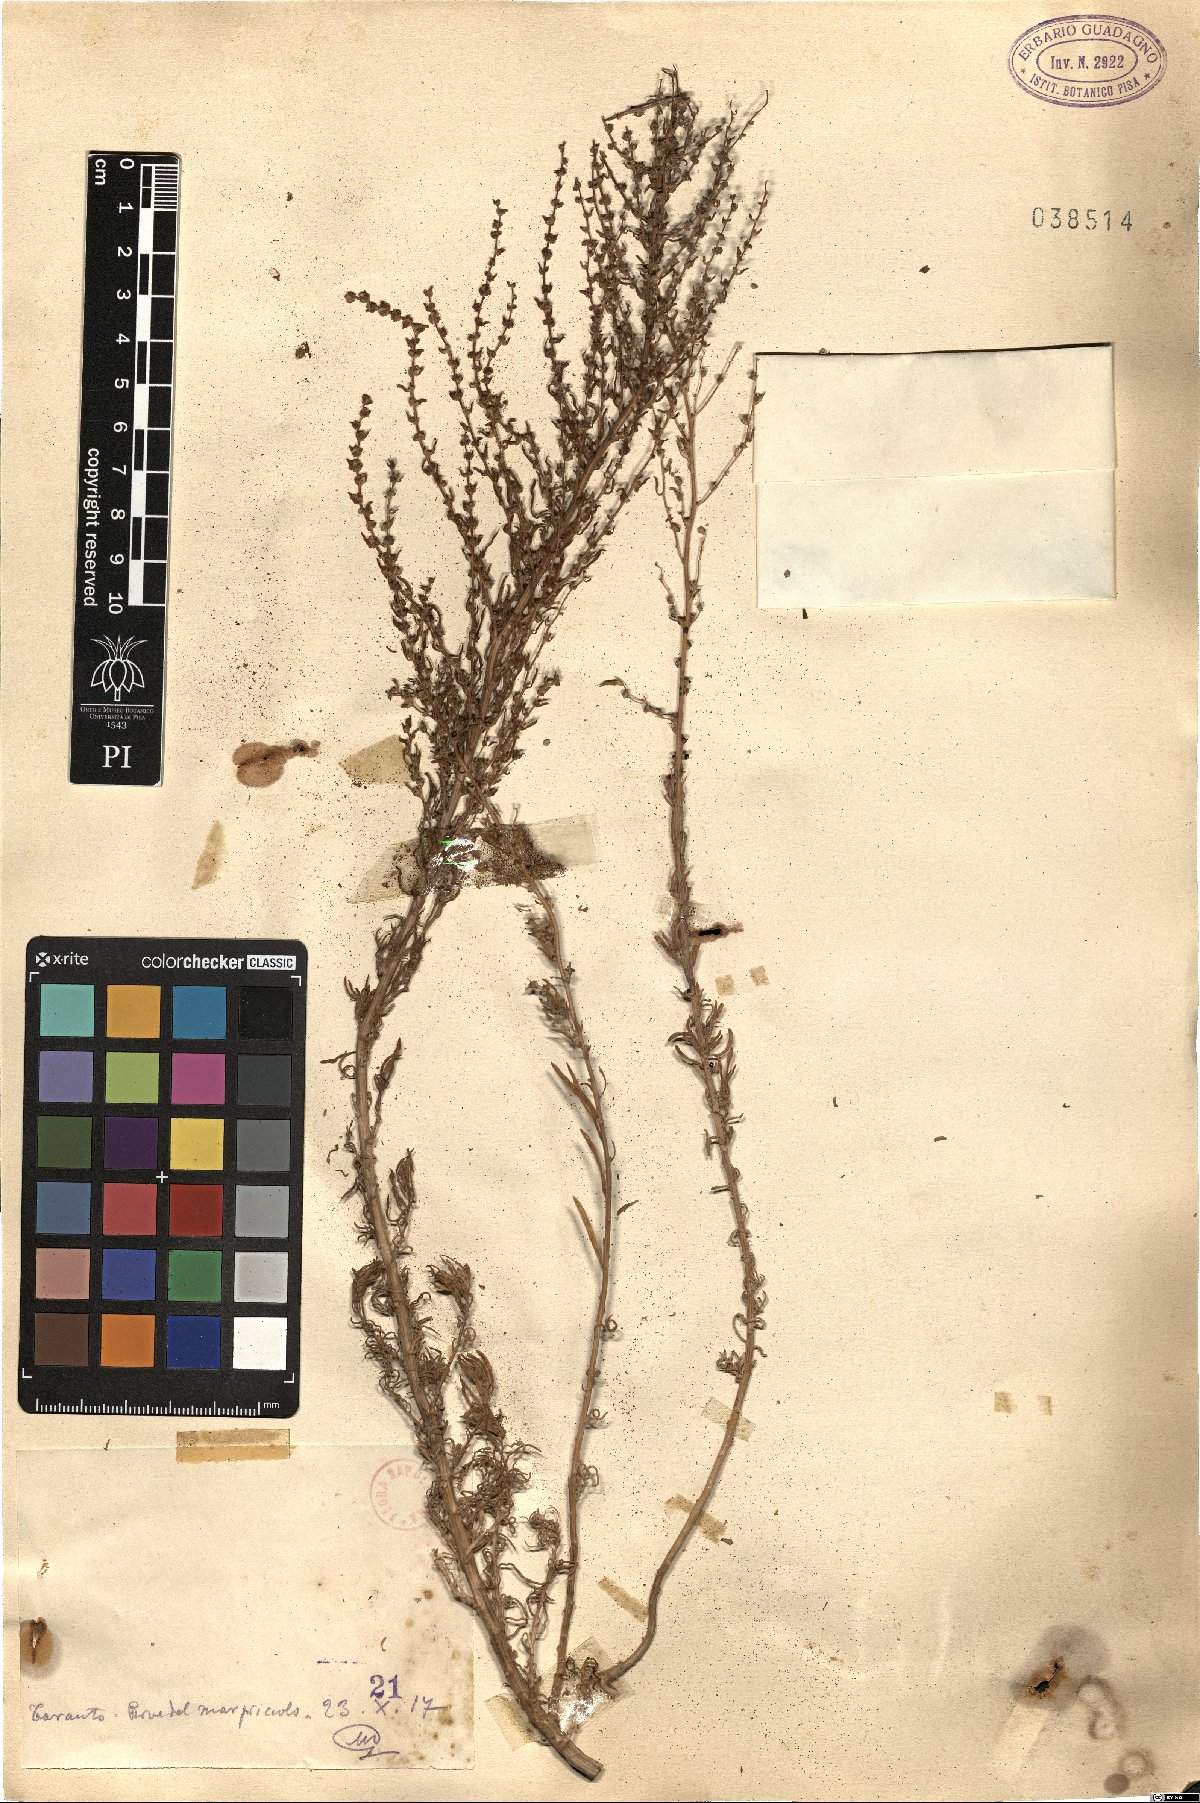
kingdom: Plantae
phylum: Tracheophyta
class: Magnoliopsida
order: Caryophyllales
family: Amaranthaceae
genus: Suaeda
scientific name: Suaeda
